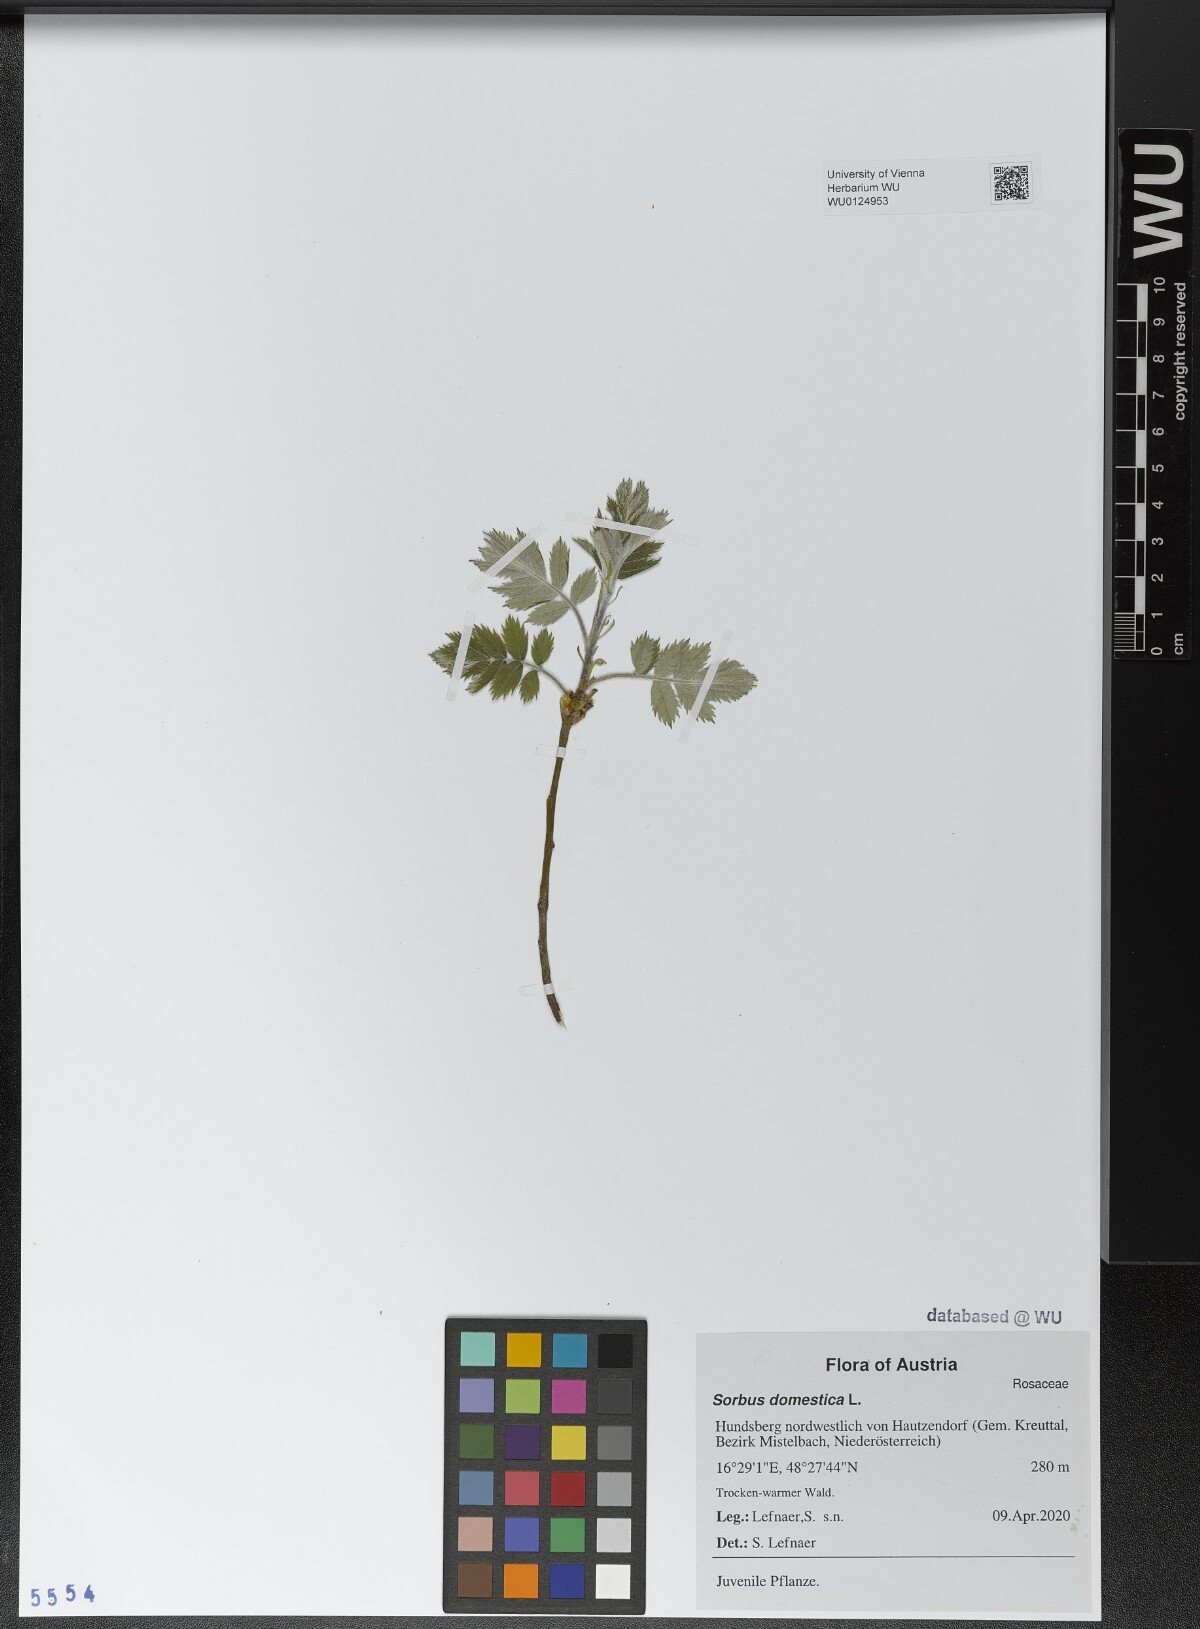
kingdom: Plantae
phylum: Tracheophyta
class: Magnoliopsida
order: Rosales
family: Rosaceae
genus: Cormus
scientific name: Cormus domestica
